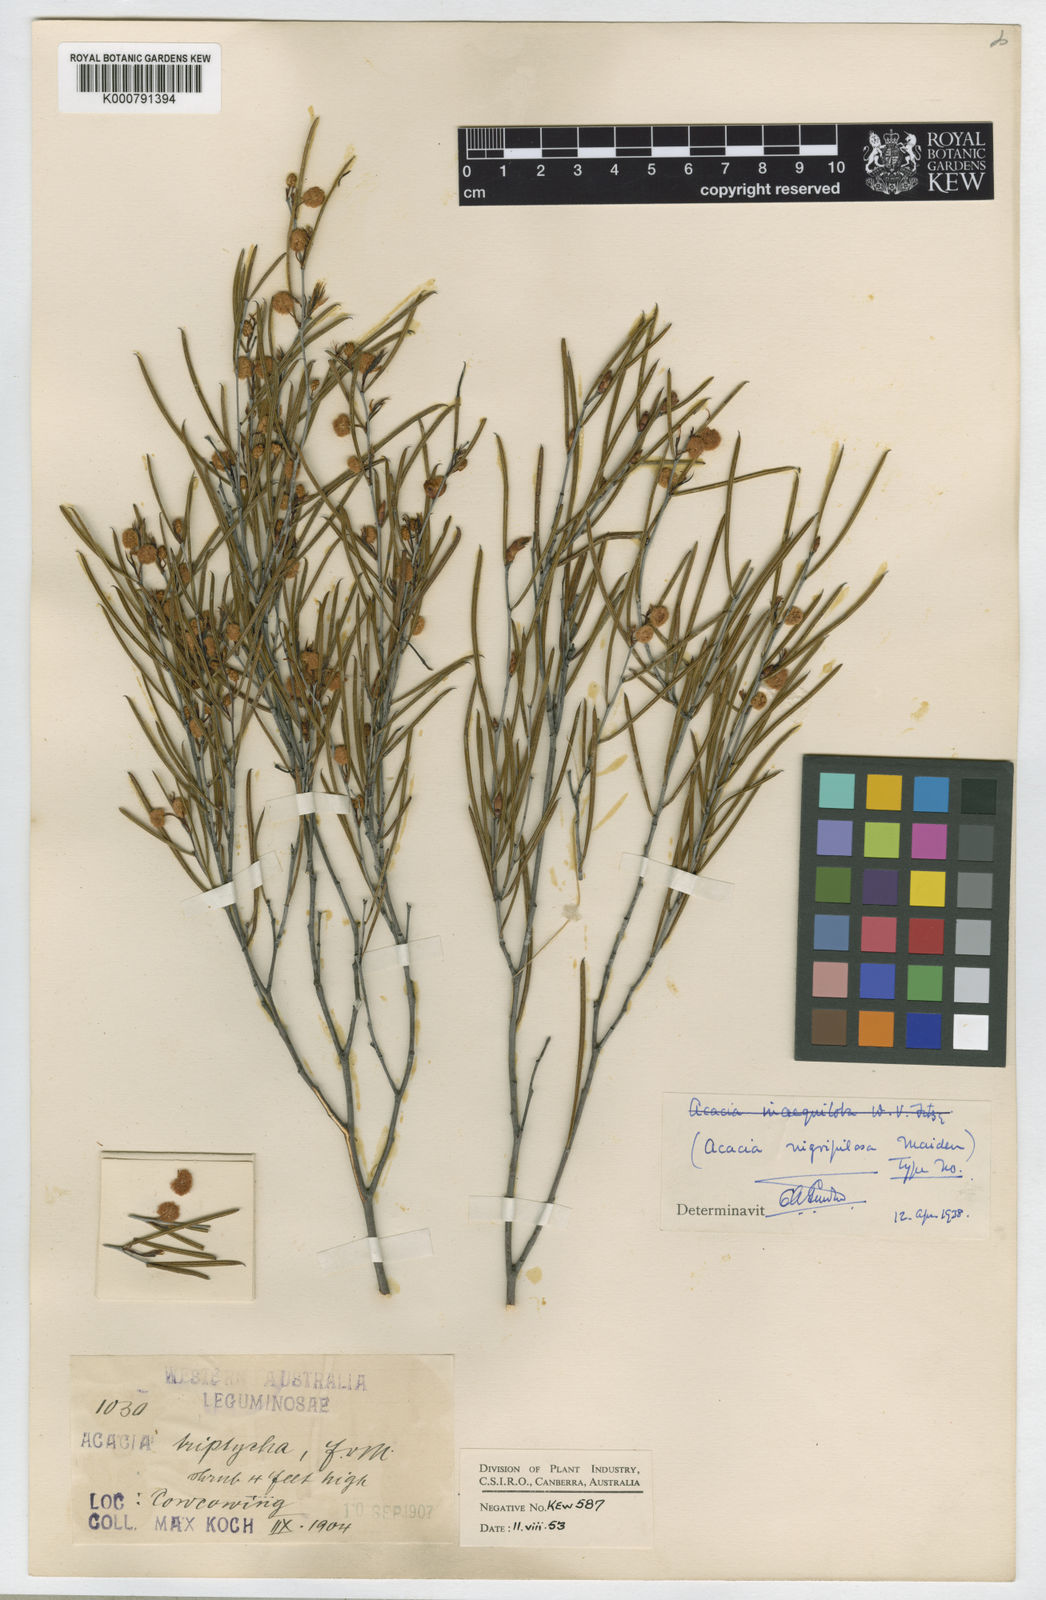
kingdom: Plantae
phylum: Tracheophyta
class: Magnoliopsida
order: Fabales
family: Fabaceae
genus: Acacia
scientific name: Acacia nigripilosa
